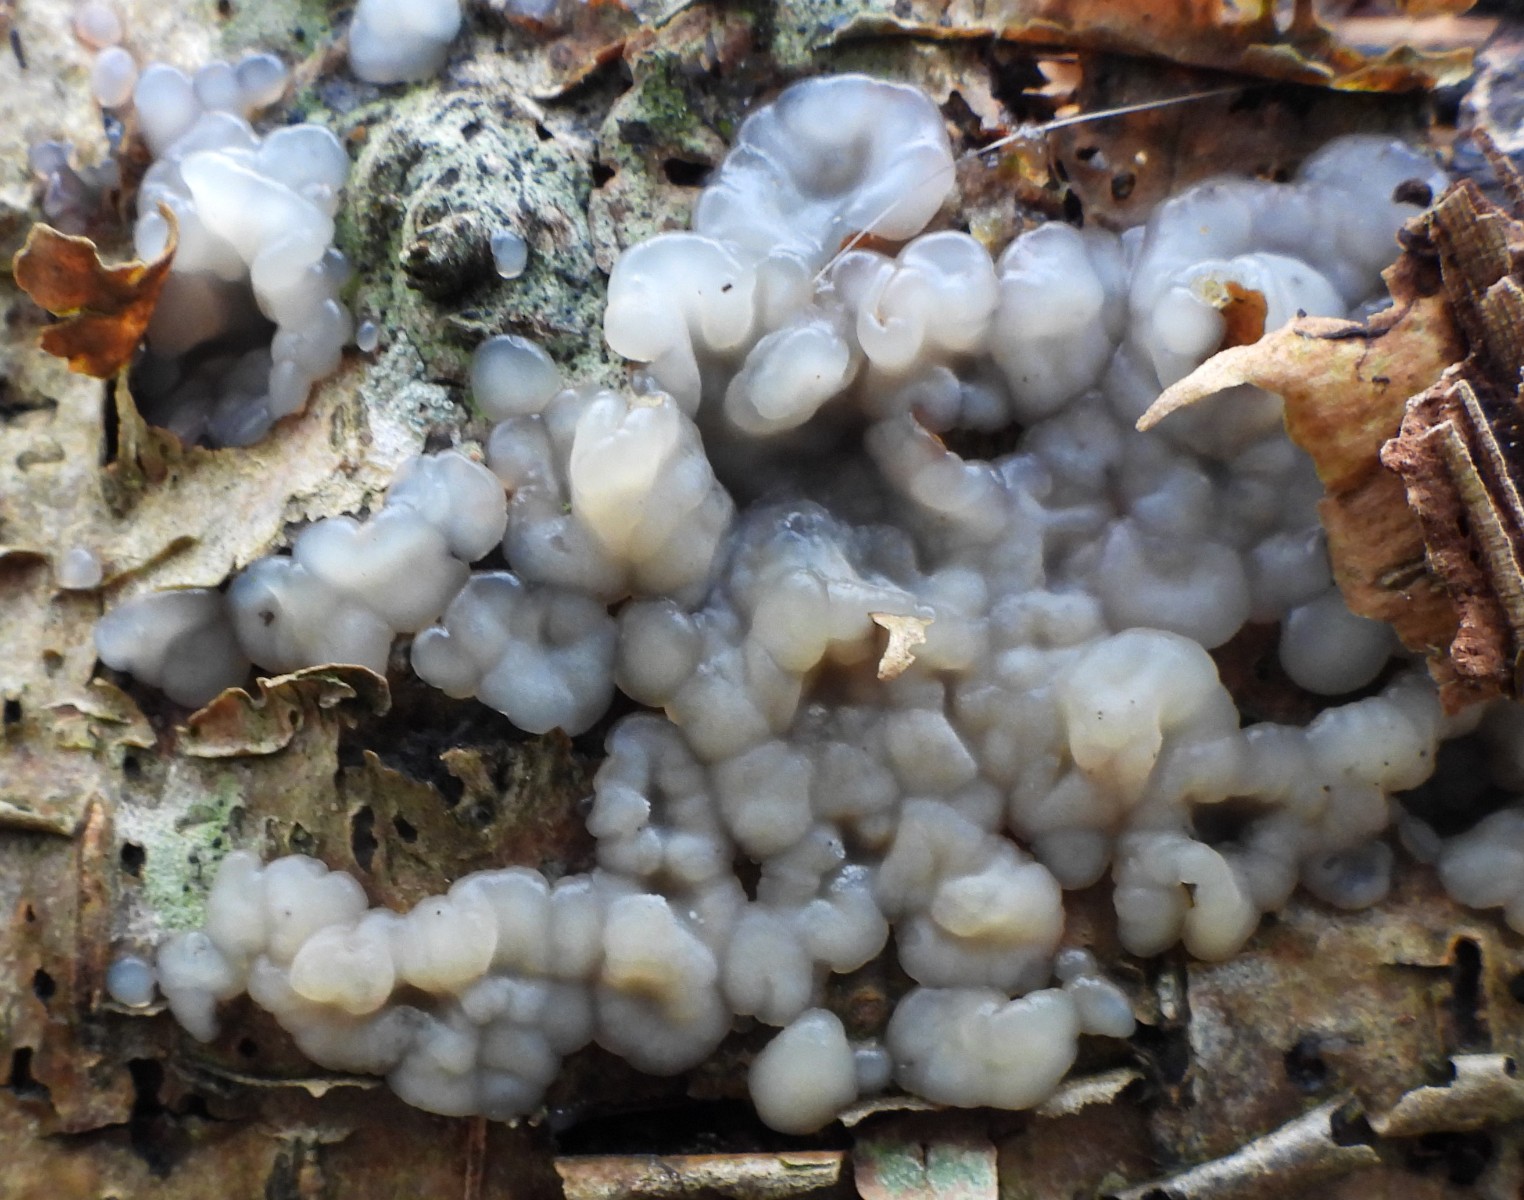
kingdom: Fungi
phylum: Basidiomycota
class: Agaricomycetes
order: Auriculariales
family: Auriculariaceae
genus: Exidia
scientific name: Exidia thuretiana
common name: hvidlig bævretop
